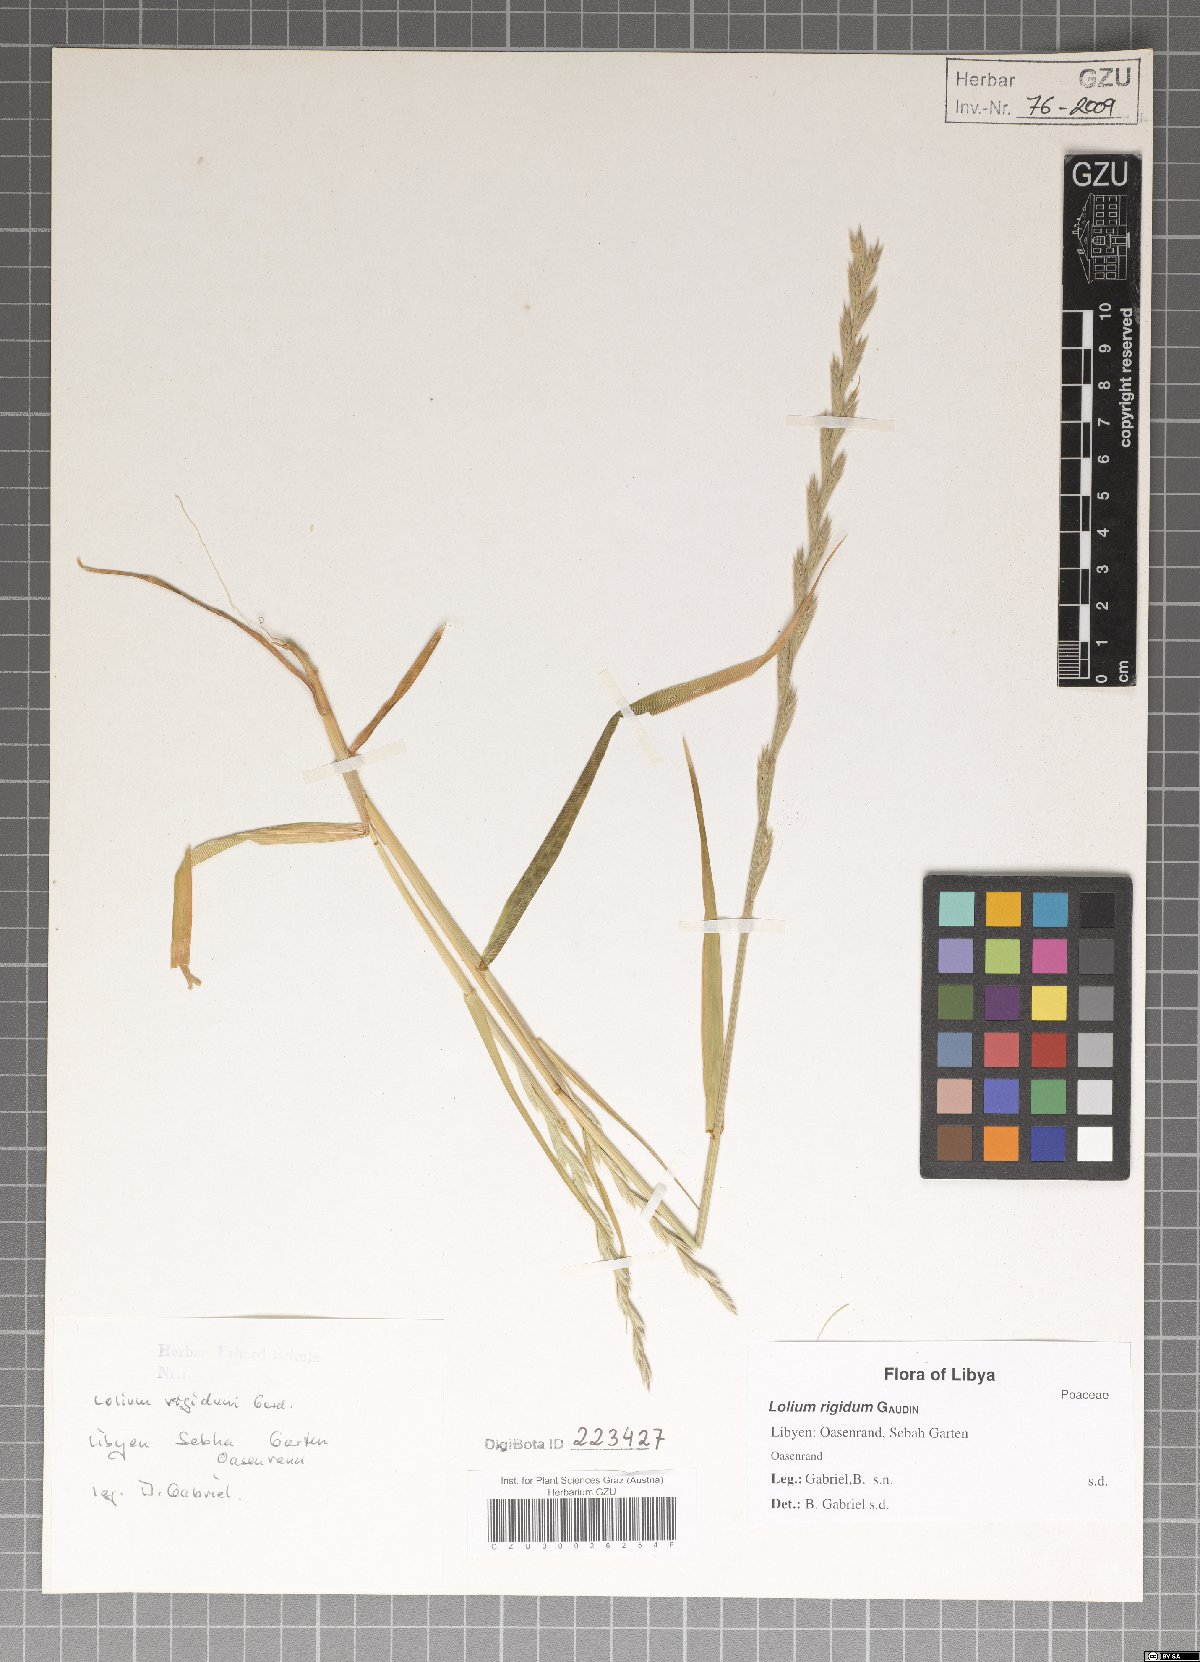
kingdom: Plantae
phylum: Tracheophyta
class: Liliopsida
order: Poales
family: Poaceae
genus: Lolium
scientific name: Lolium rigidum
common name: Wimmera ryegrass
